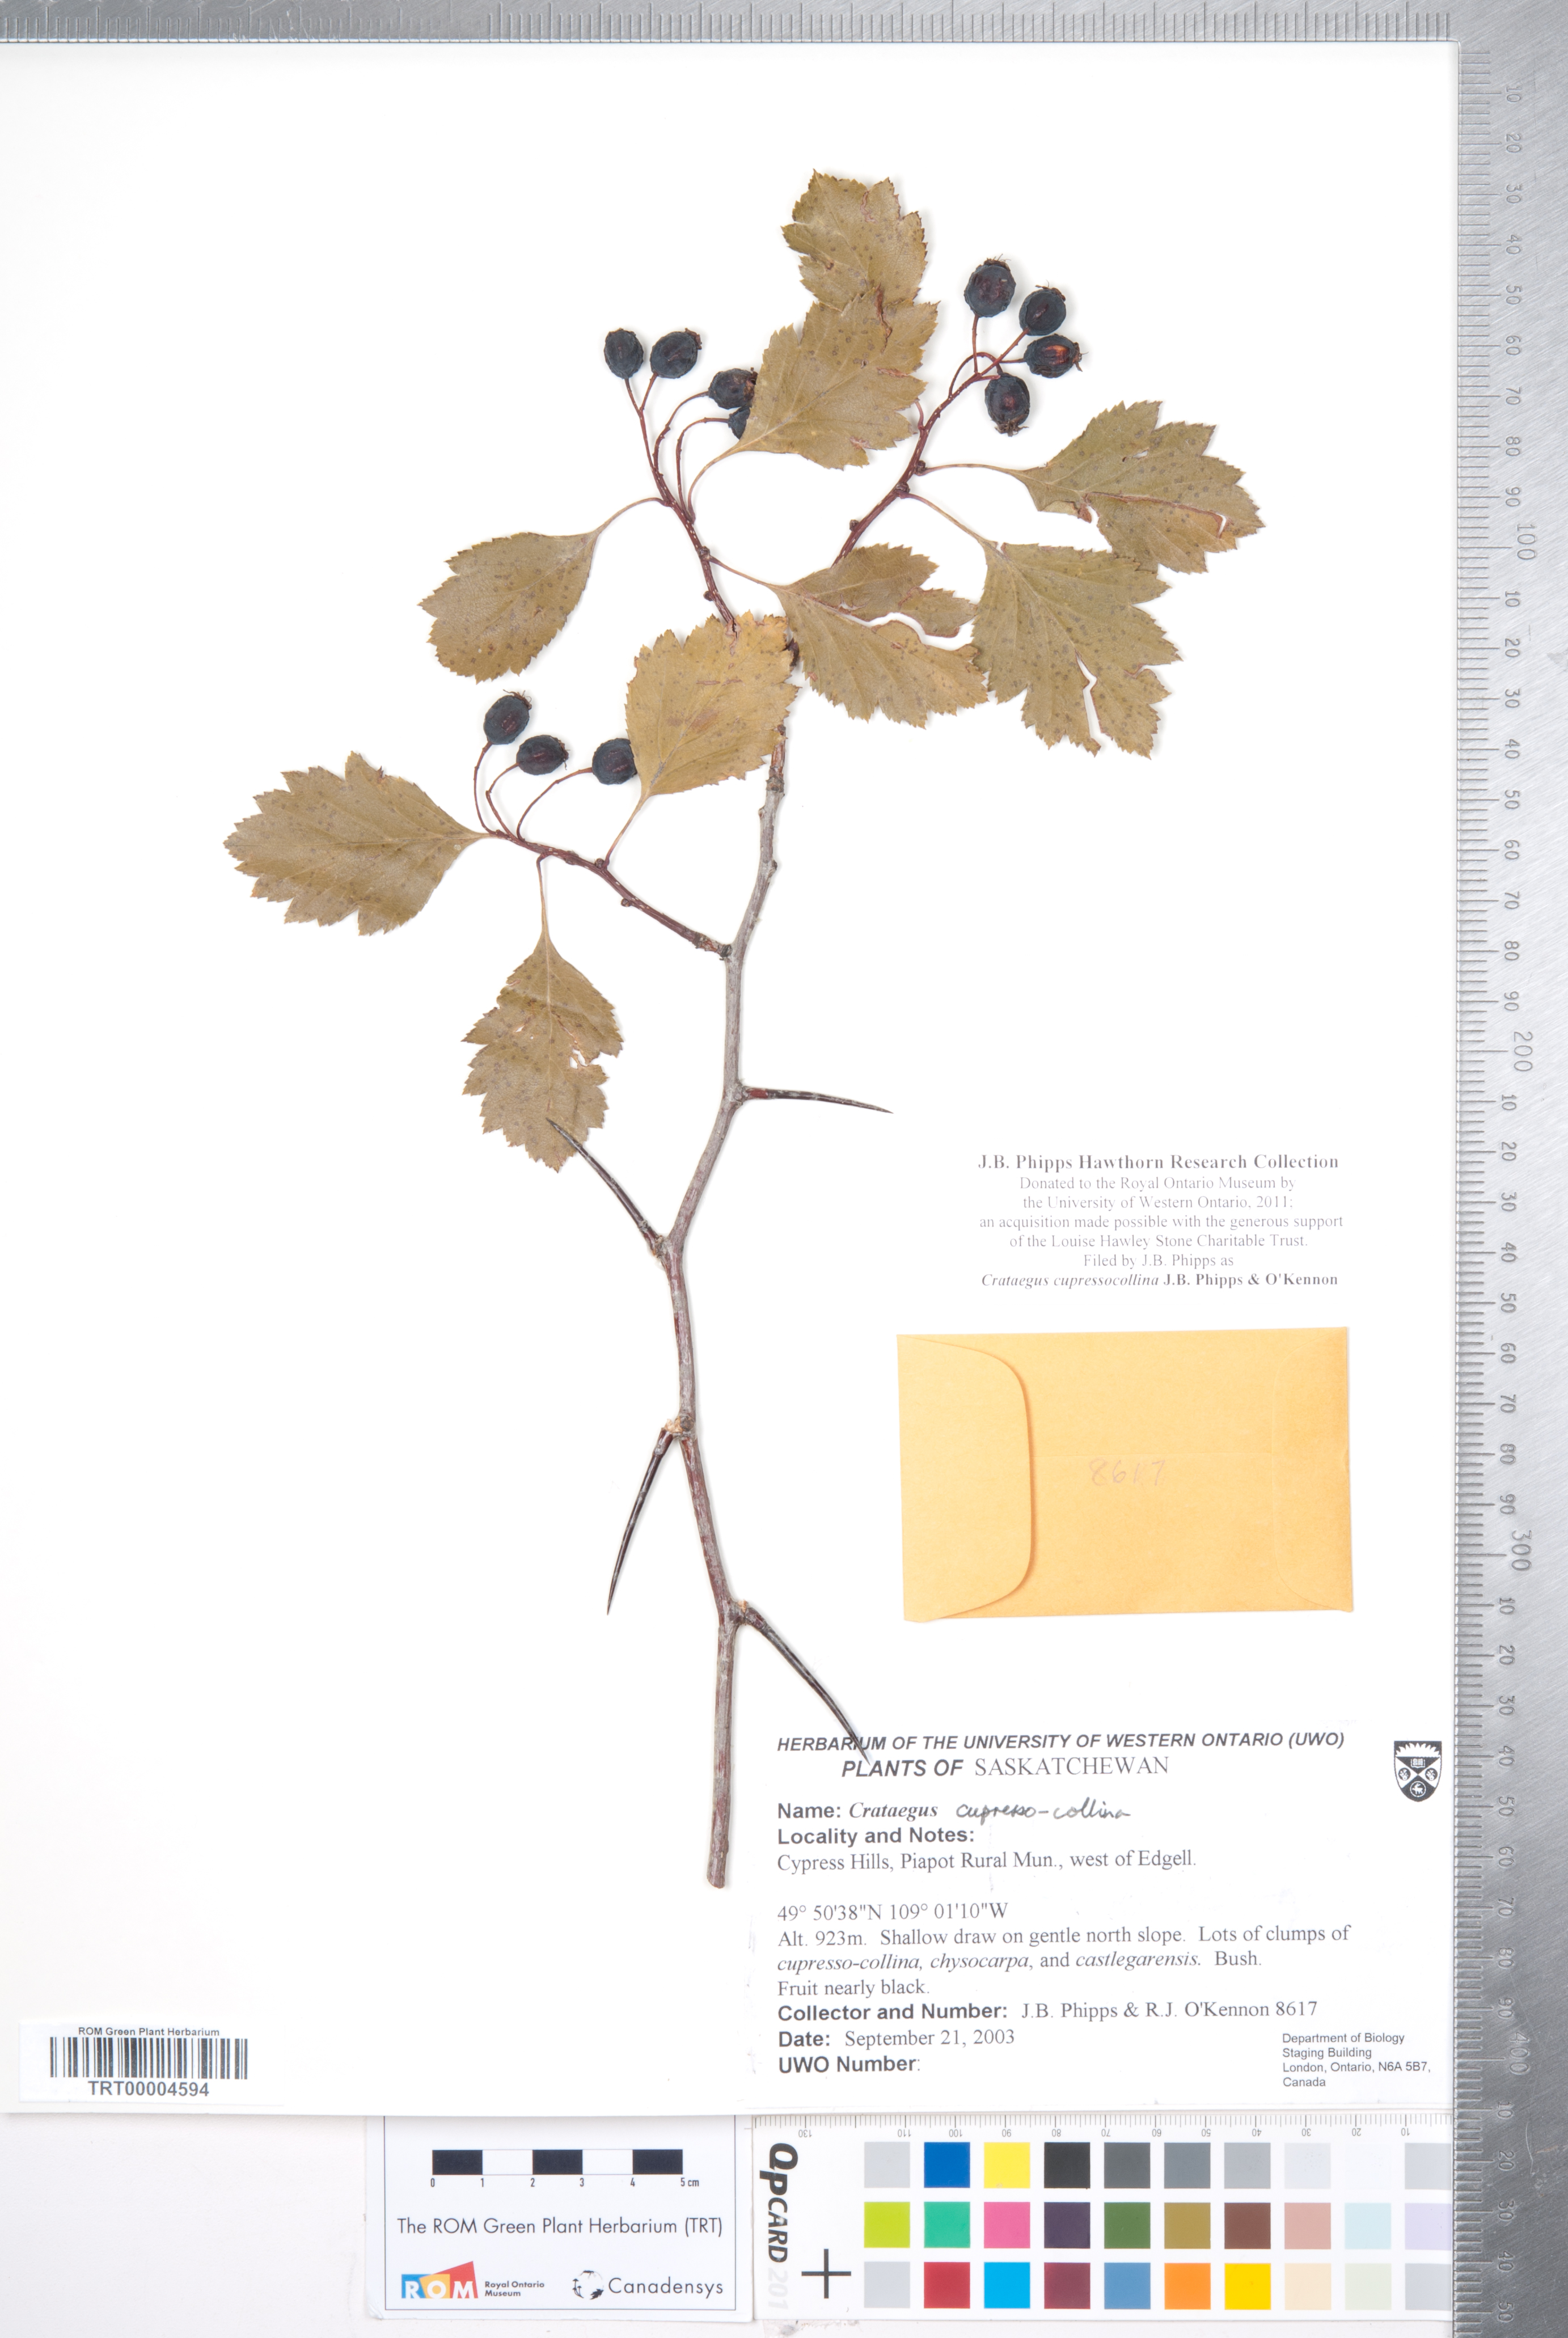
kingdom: Plantae
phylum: Tracheophyta
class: Magnoliopsida
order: Rosales
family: Rosaceae
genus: Crataegus
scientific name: Crataegus cupressocollina
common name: Cypress hills hawthorn
